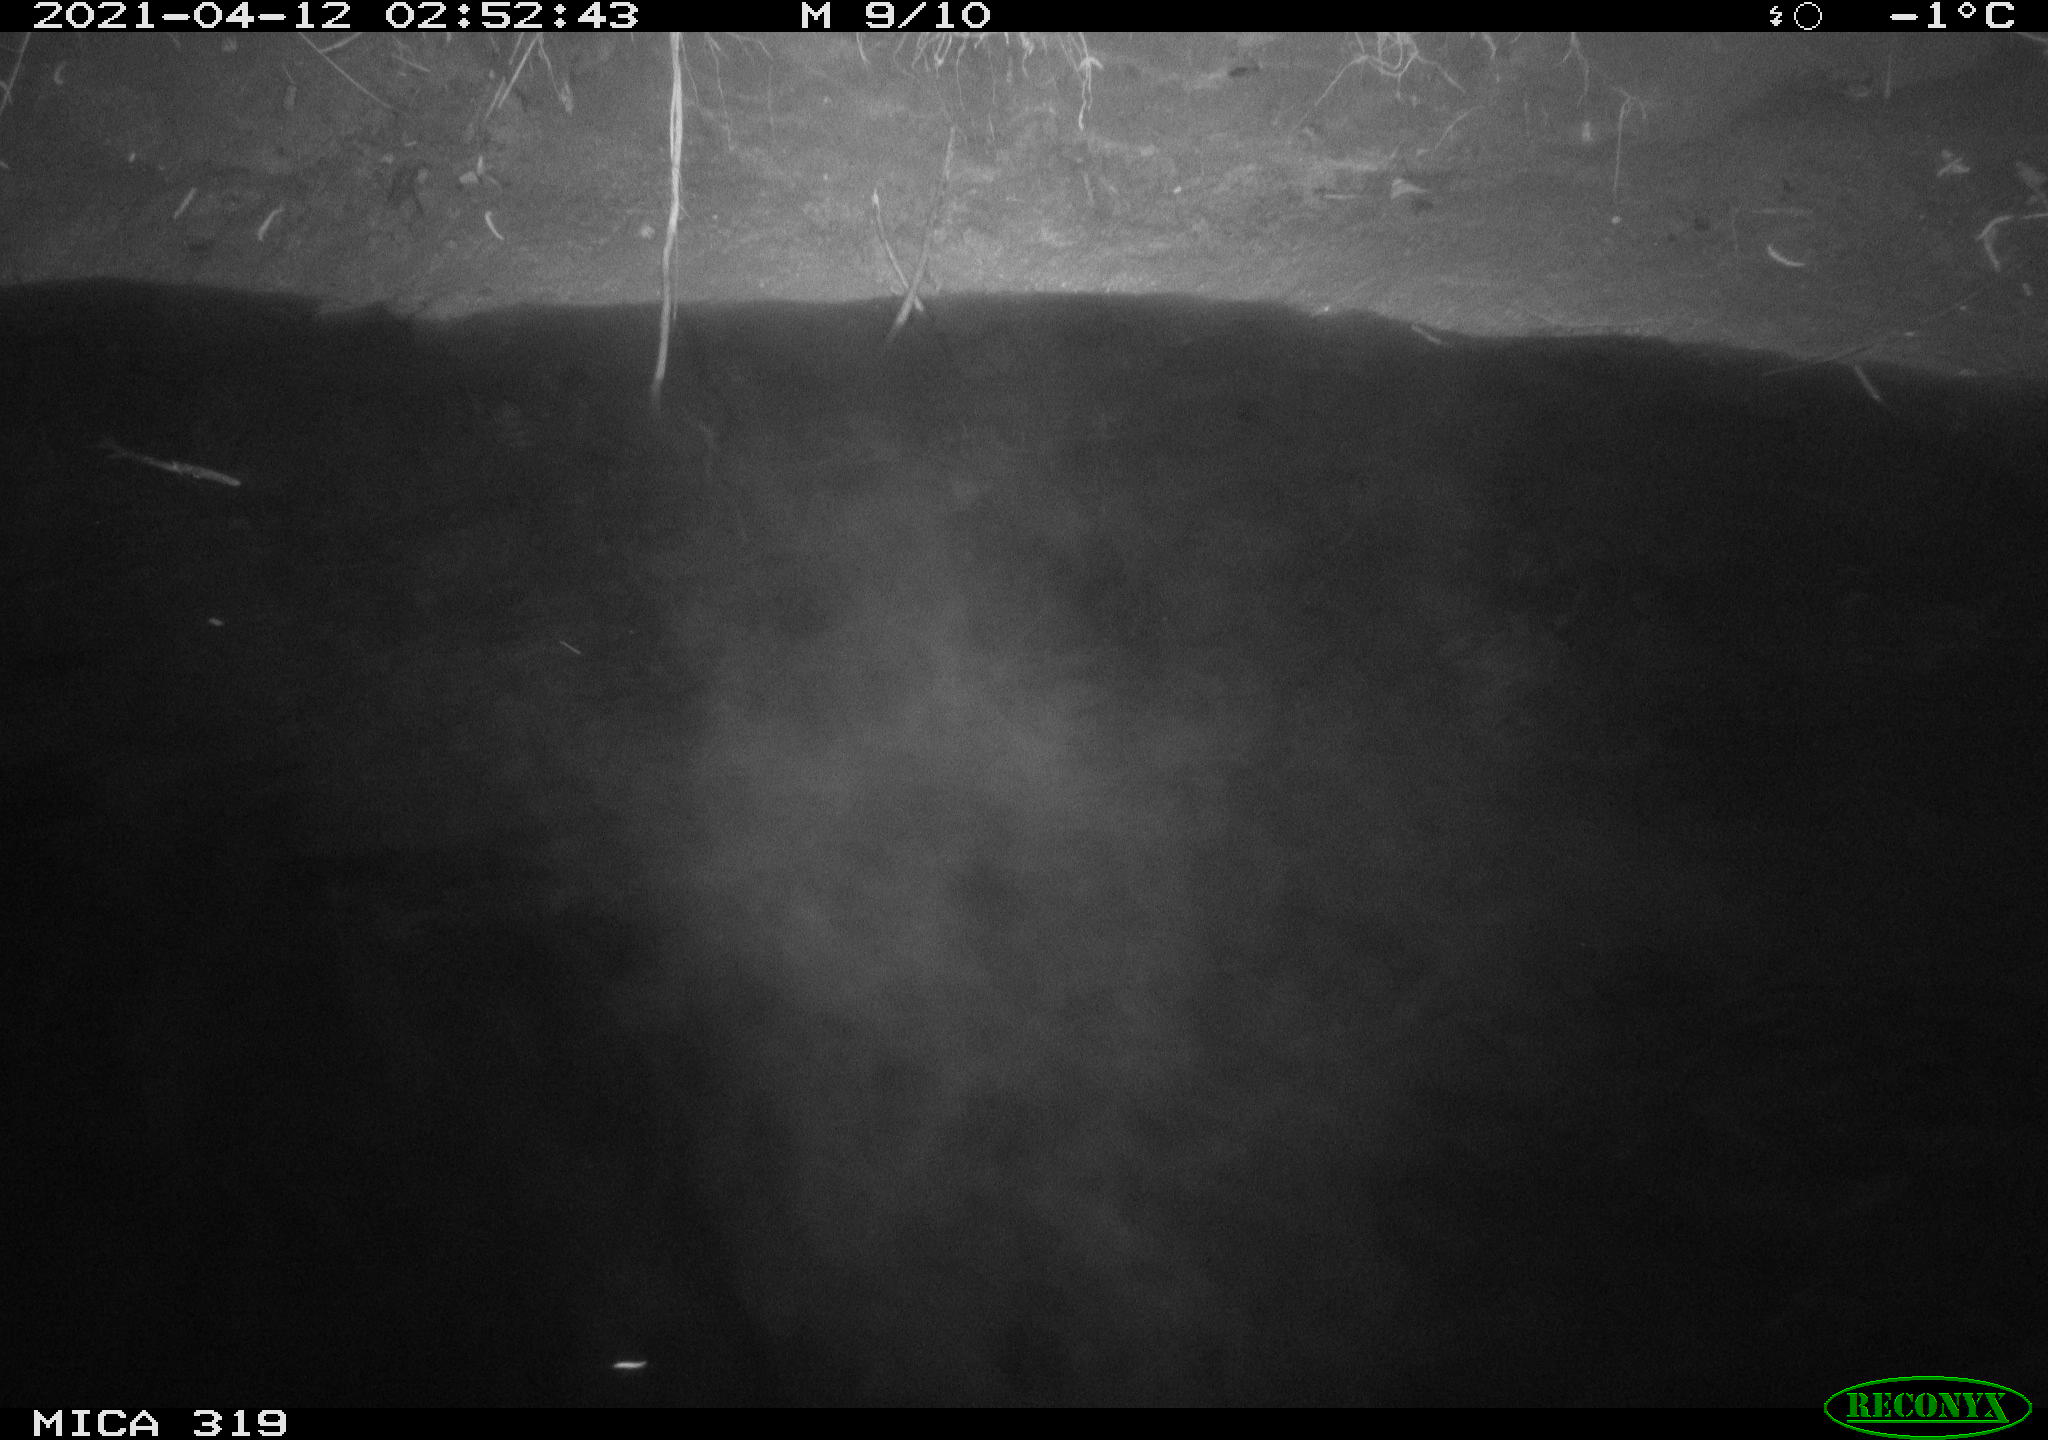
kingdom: Animalia
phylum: Chordata
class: Aves
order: Anseriformes
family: Anatidae
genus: Anas
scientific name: Anas platyrhynchos
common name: Mallard
